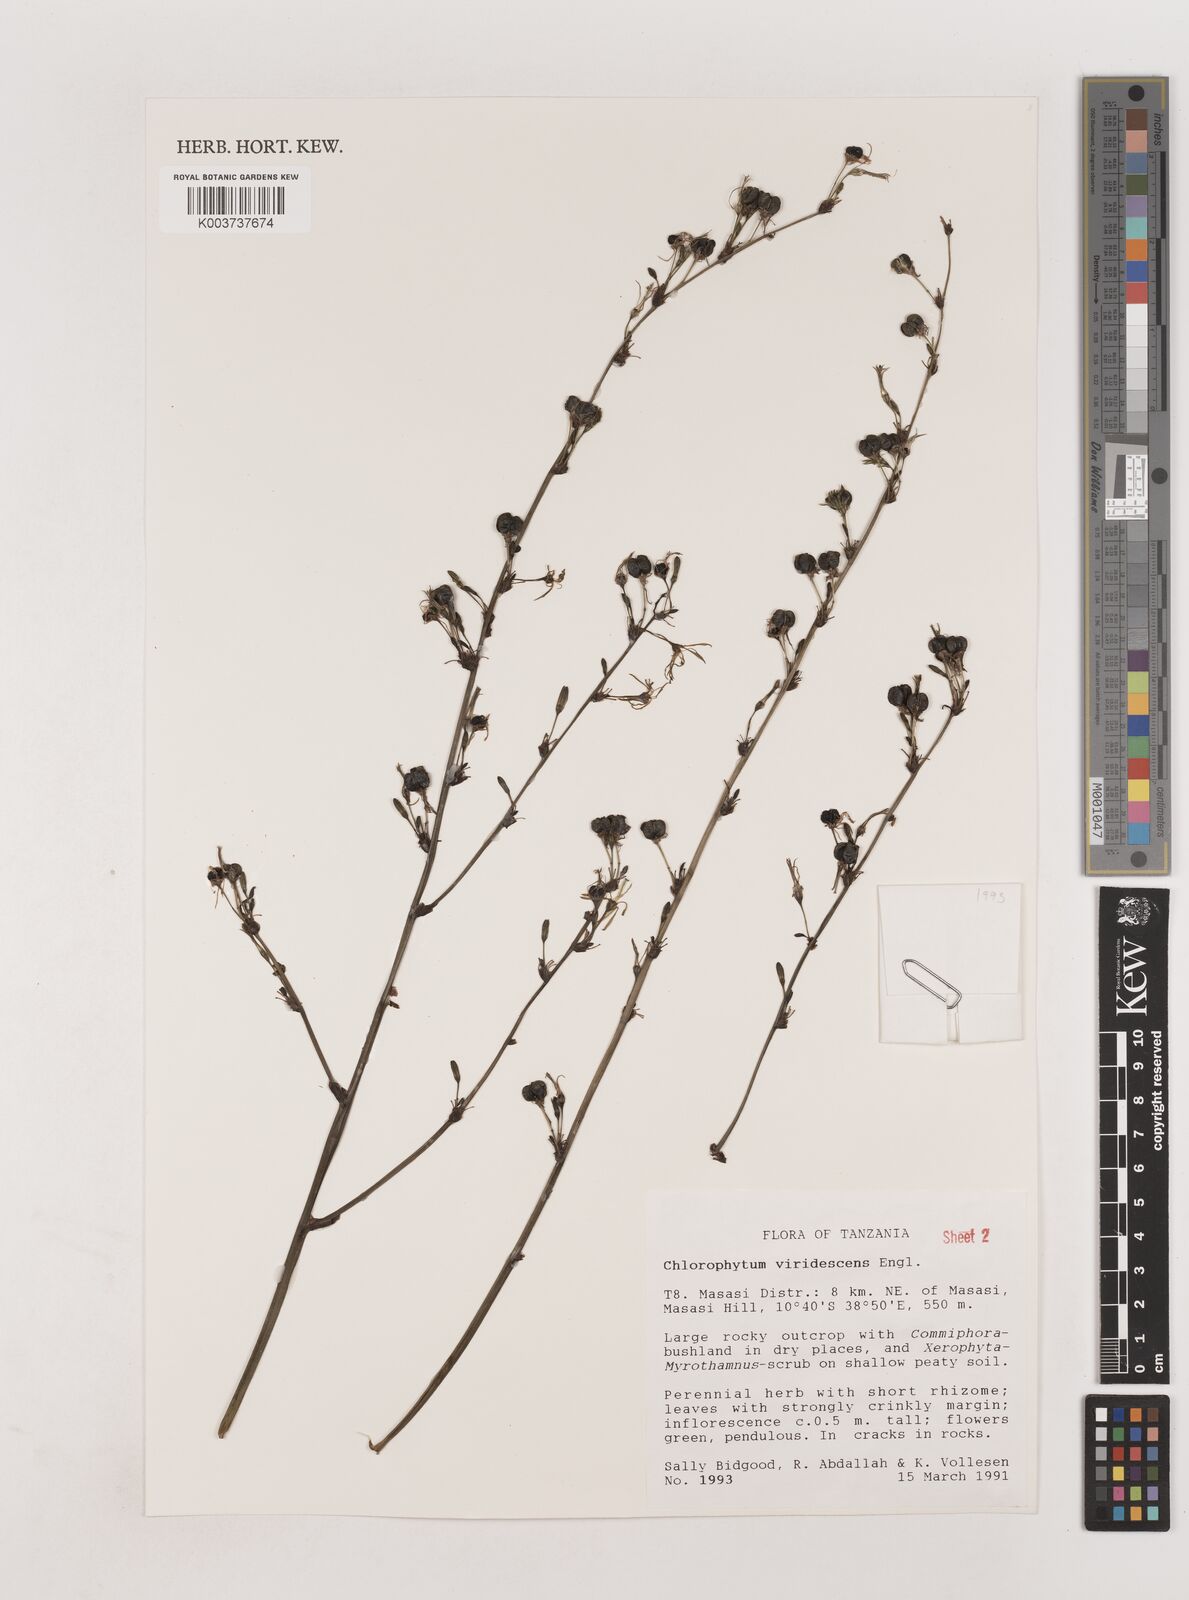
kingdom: Plantae
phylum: Tracheophyta
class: Liliopsida
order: Asparagales
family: Asparagaceae
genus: Chlorophytum
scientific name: Chlorophytum viridescens
